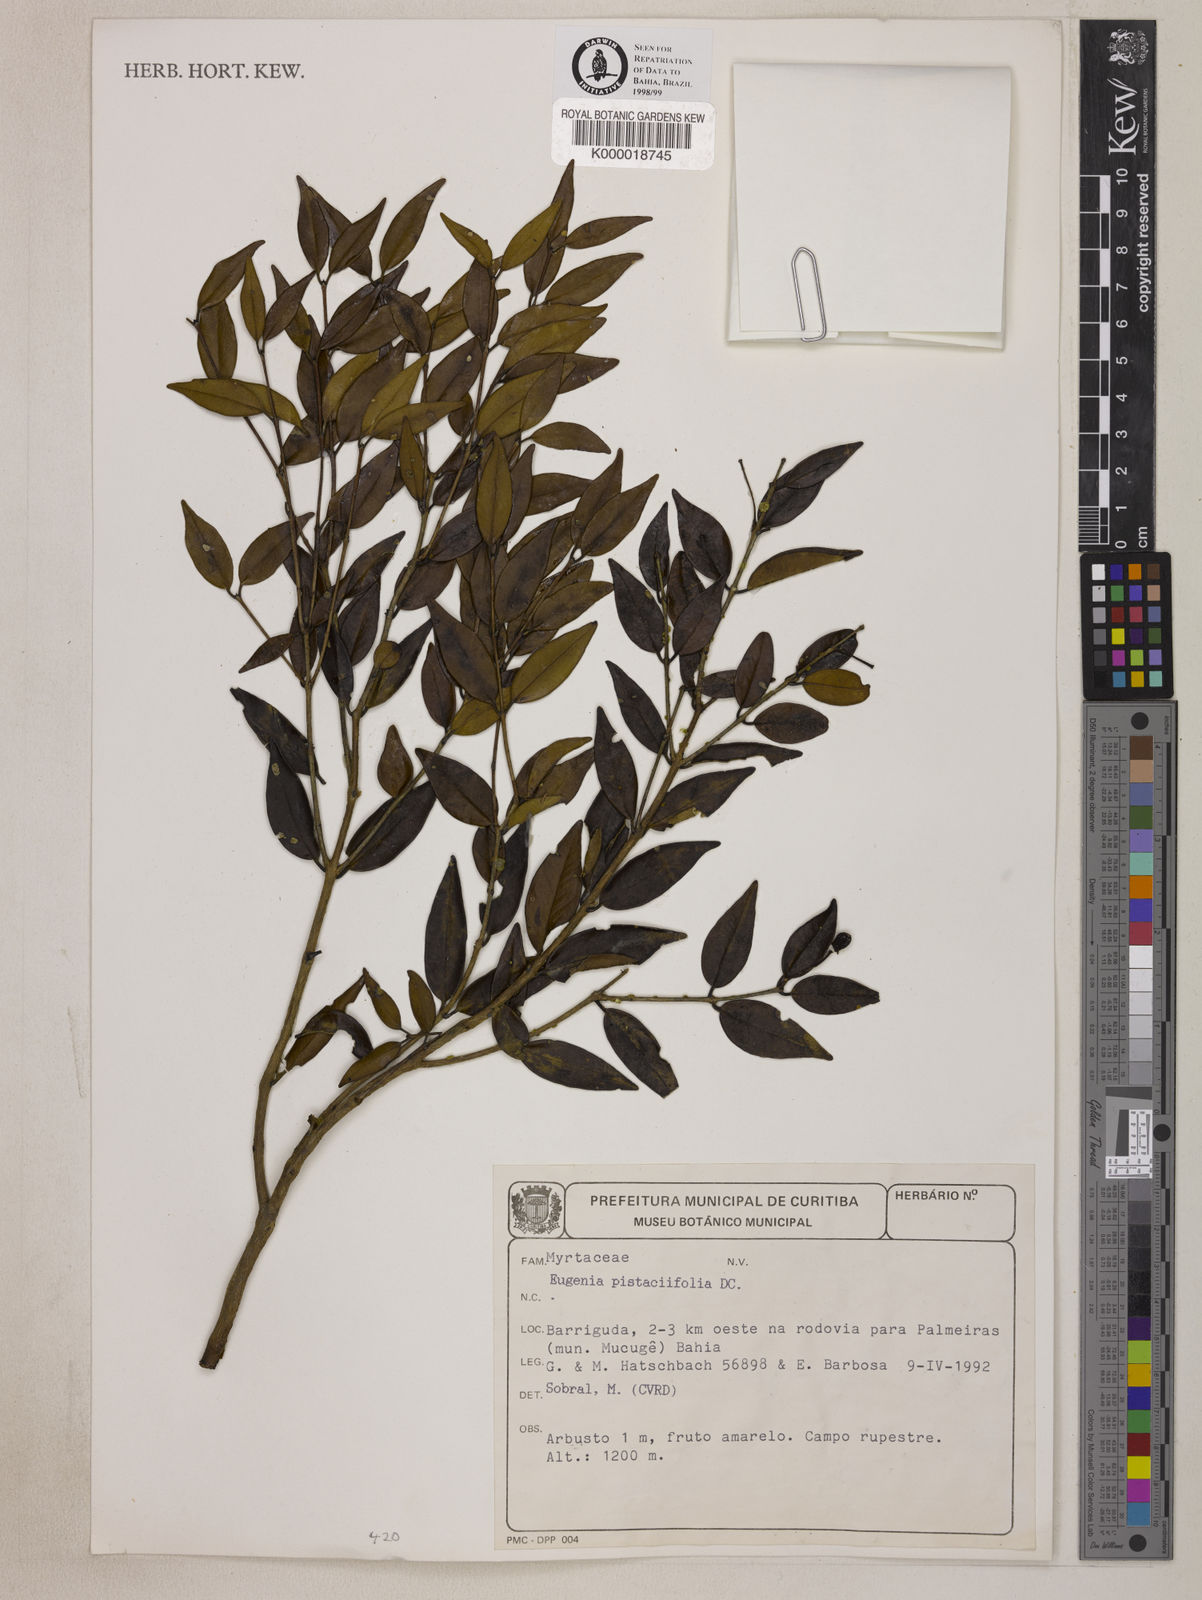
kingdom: Plantae
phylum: Tracheophyta
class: Magnoliopsida
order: Myrtales
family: Myrtaceae
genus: Eugenia
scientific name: Eugenia pistaciifolia
